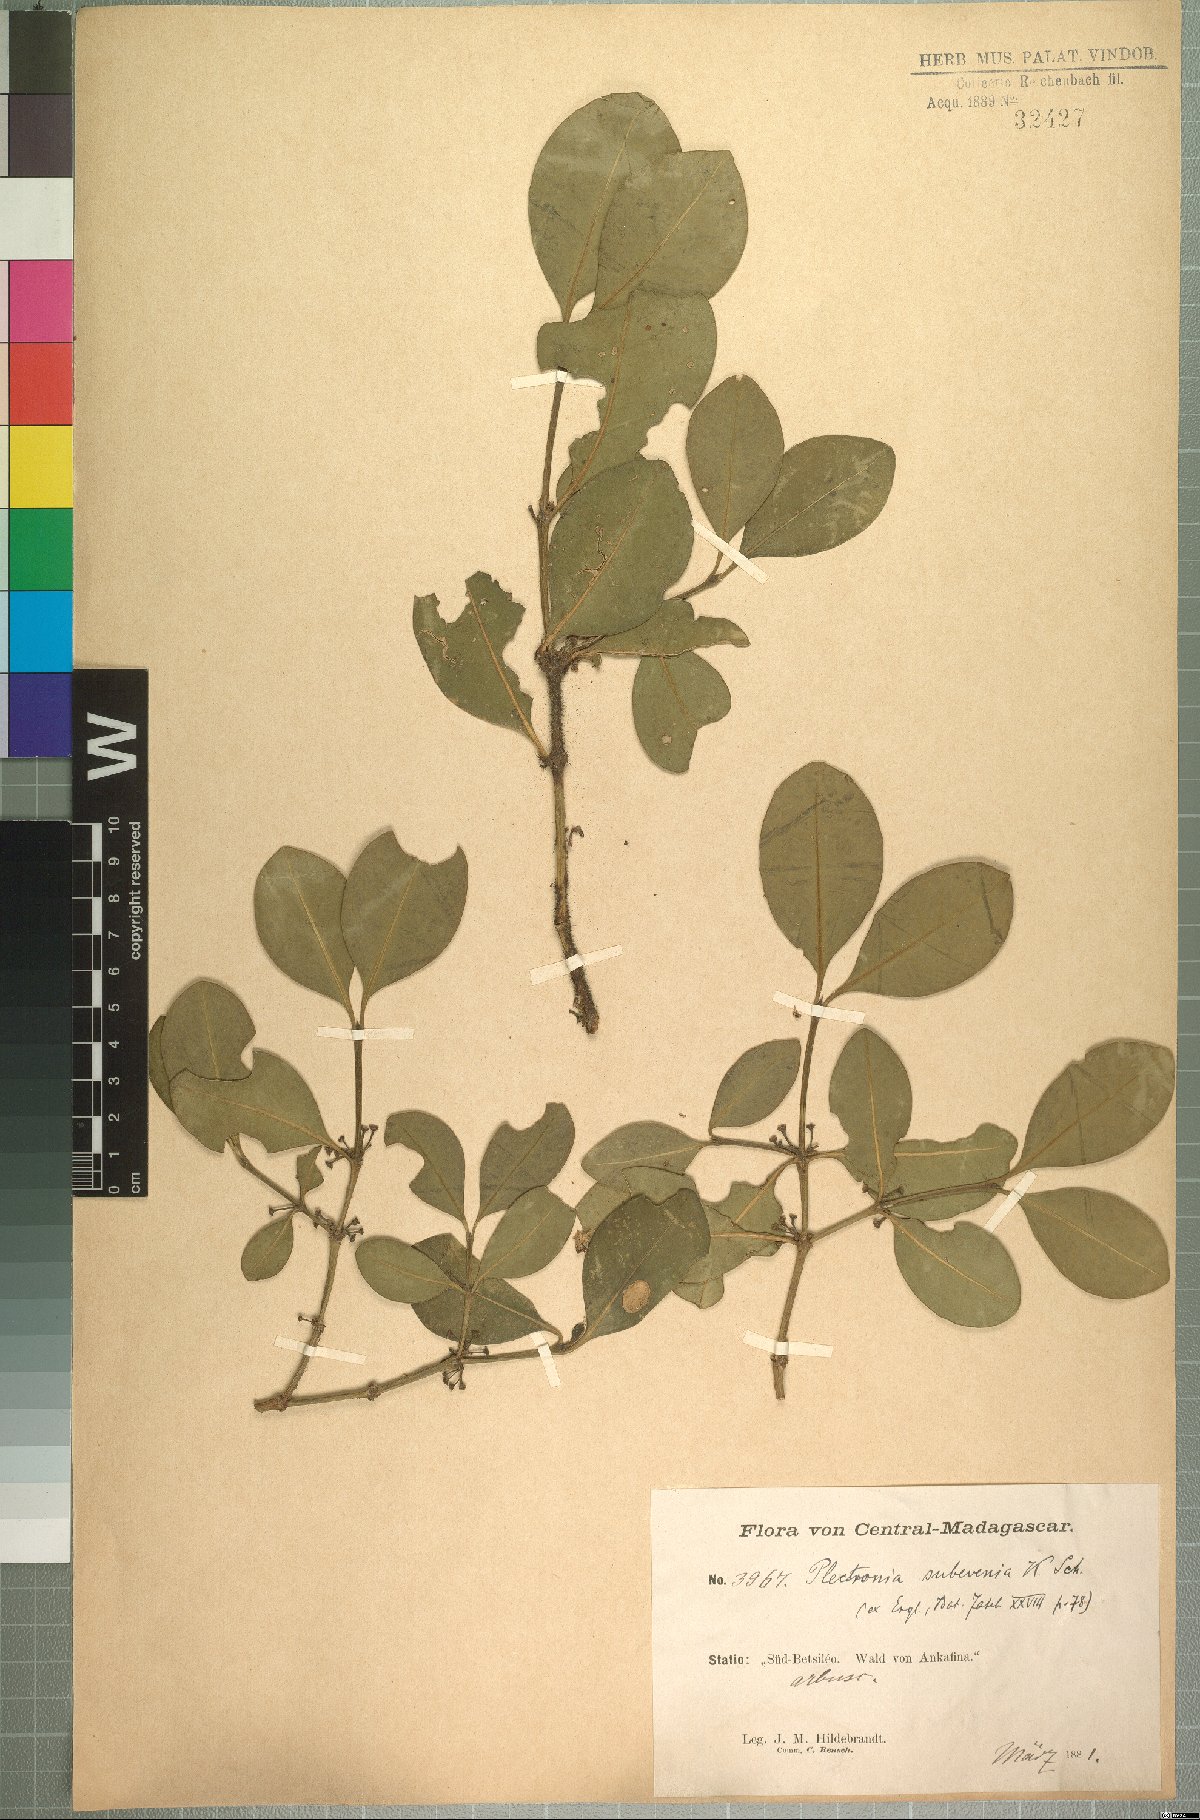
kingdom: Plantae
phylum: Tracheophyta
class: Magnoliopsida
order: Gentianales
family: Rubiaceae
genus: Peponidium
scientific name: Peponidium subevenium
